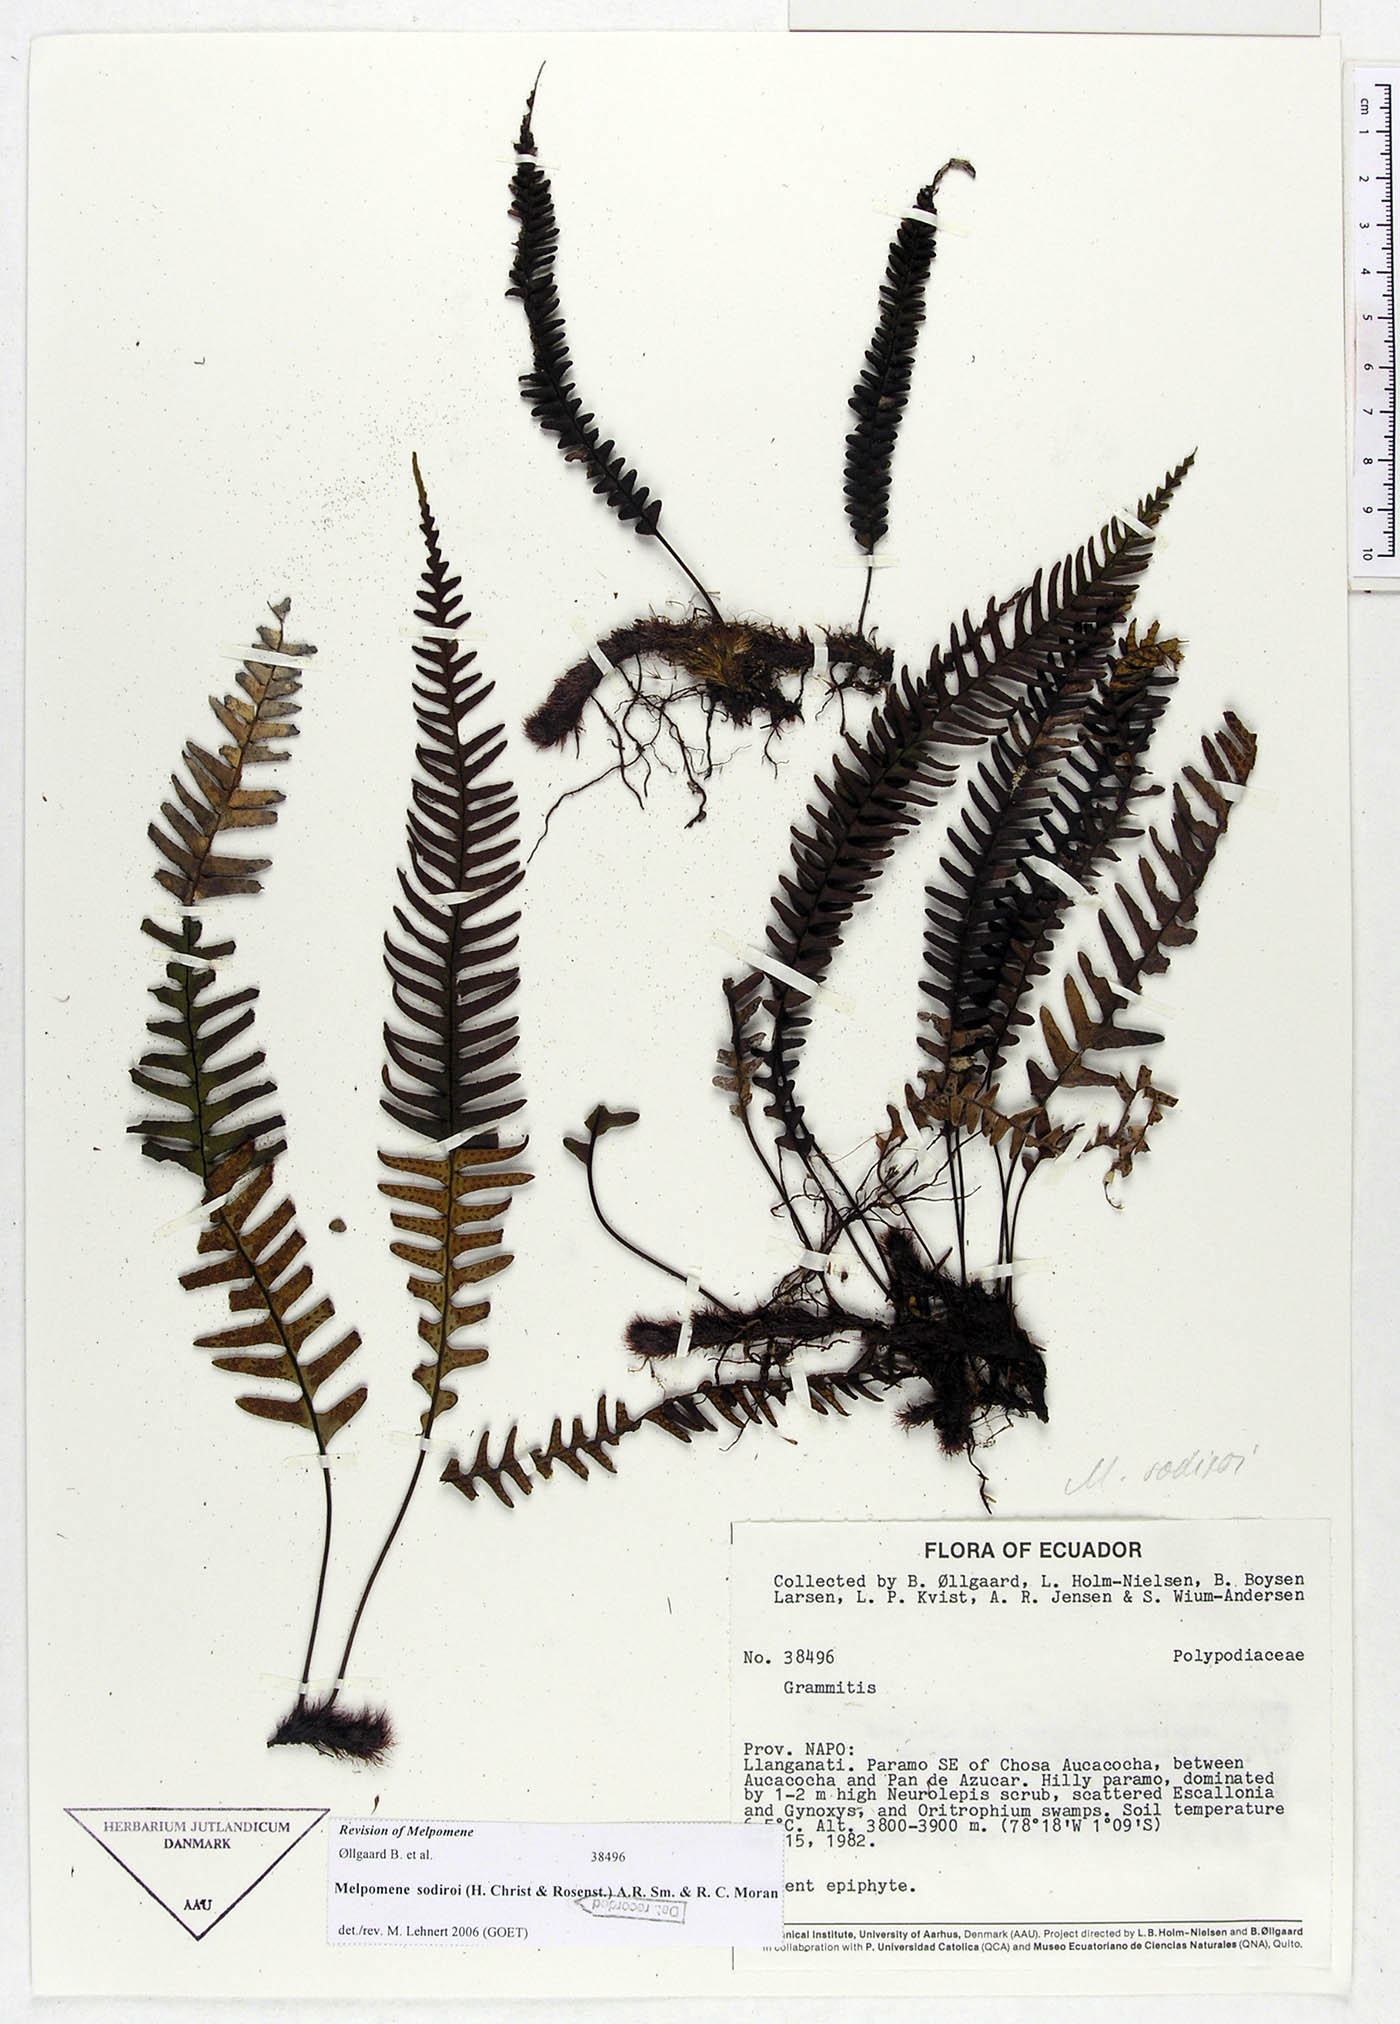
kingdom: Plantae
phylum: Tracheophyta
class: Polypodiopsida
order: Polypodiales
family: Polypodiaceae
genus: Melpomene
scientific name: Melpomene sodiroi
